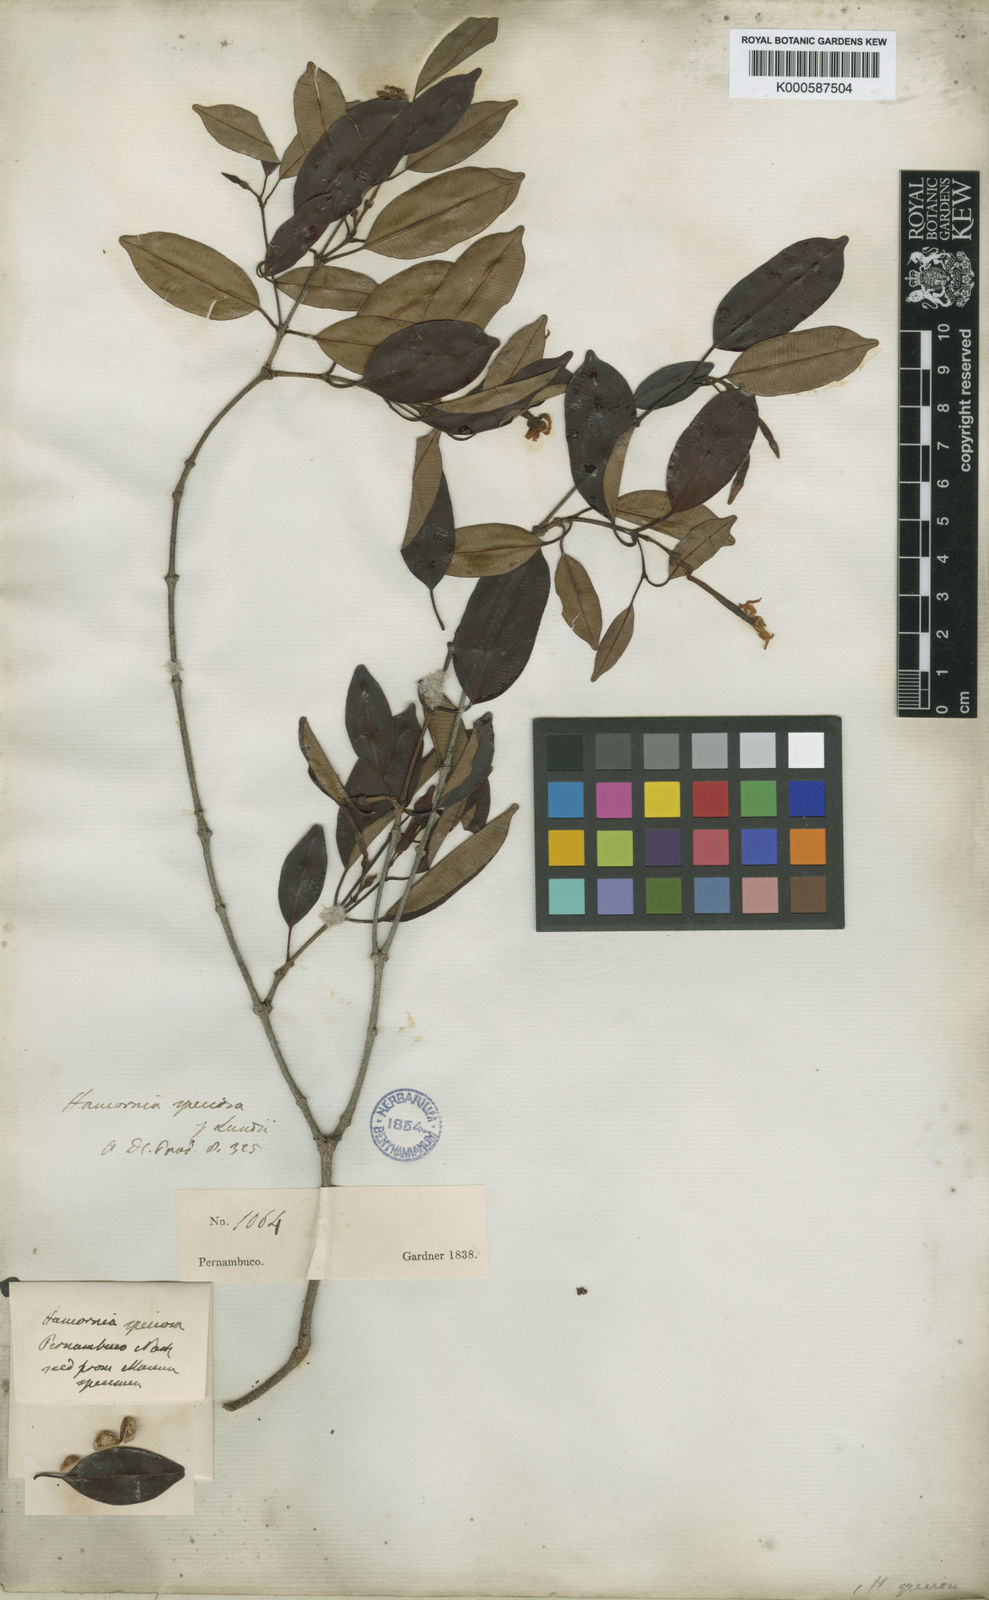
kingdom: Plantae
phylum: Tracheophyta
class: Magnoliopsida
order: Gentianales
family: Apocynaceae
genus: Hancornia
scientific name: Hancornia speciosa
